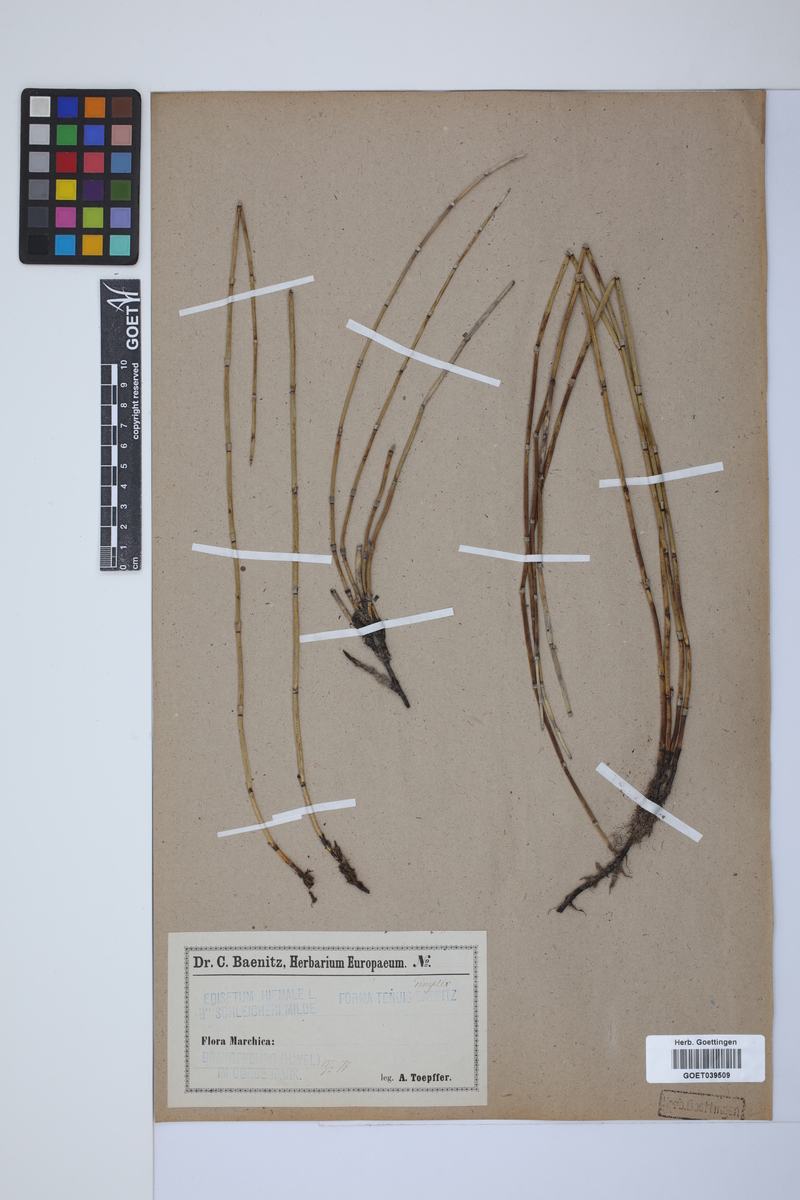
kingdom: Plantae
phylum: Tracheophyta
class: Polypodiopsida
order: Equisetales
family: Equisetaceae
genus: Equisetum
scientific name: Equisetum trachyodon
